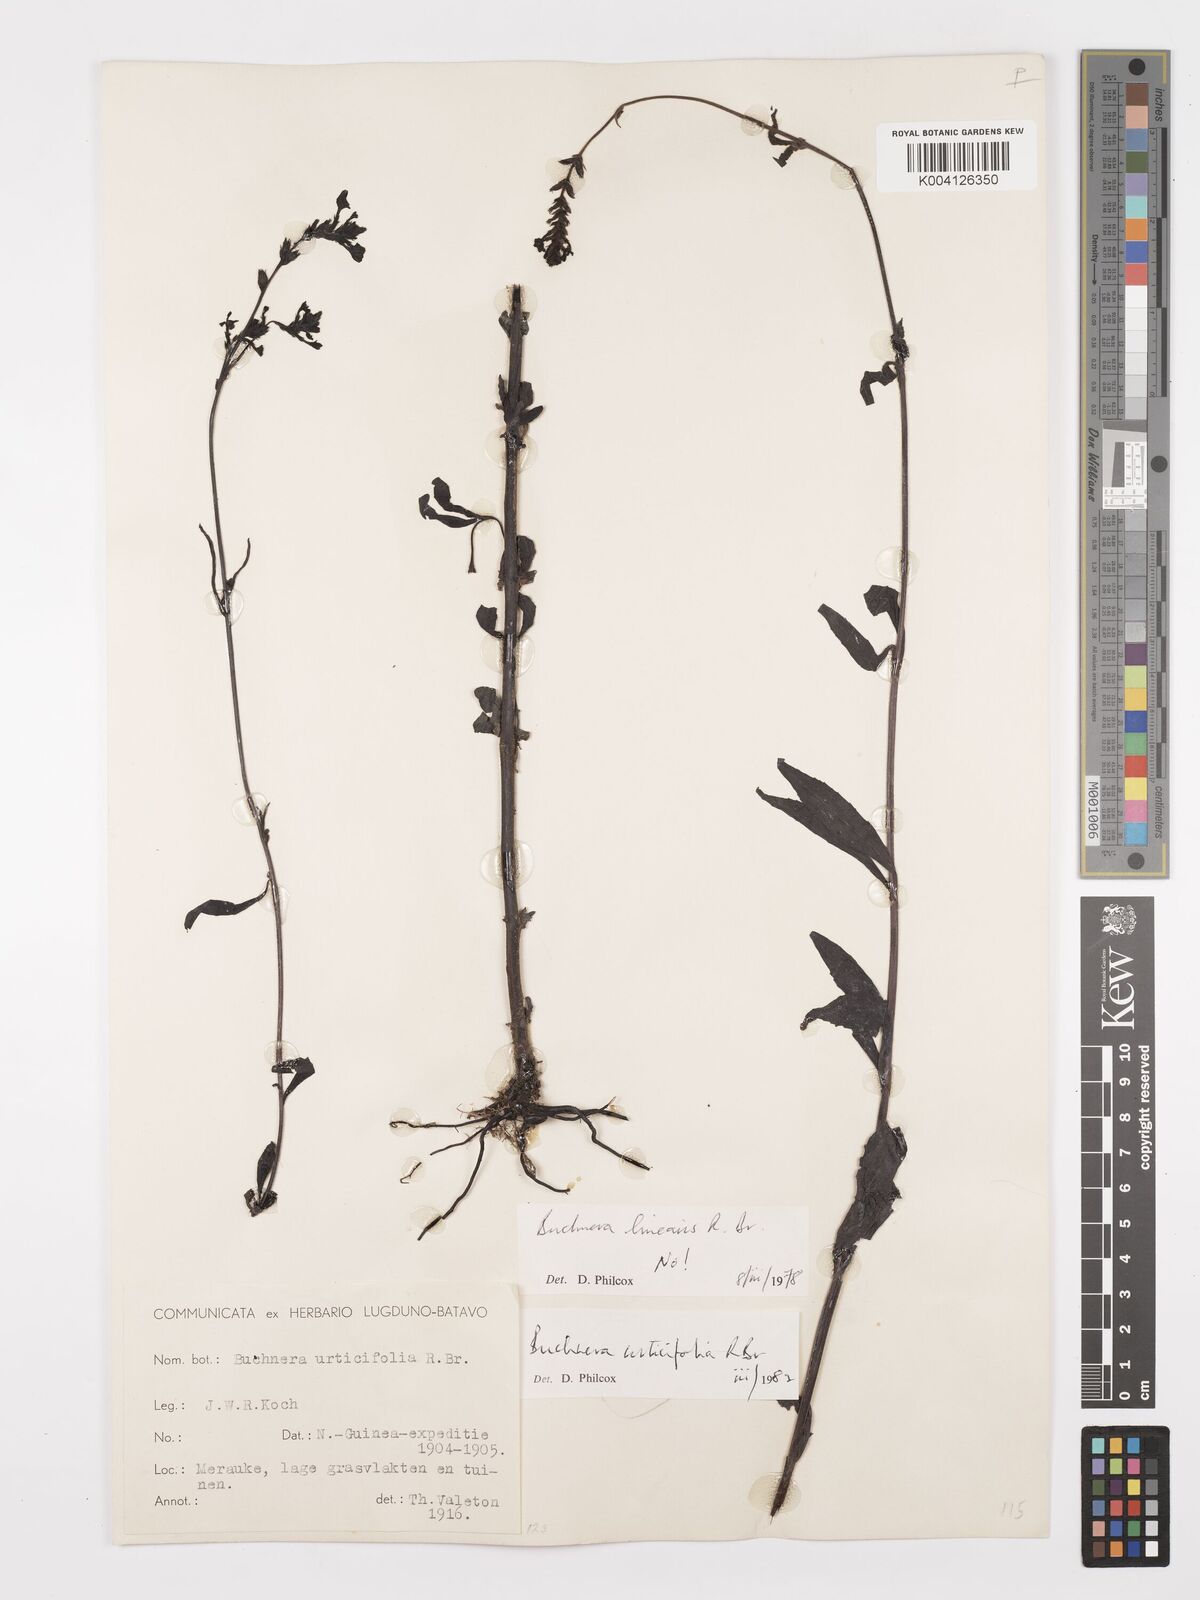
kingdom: Plantae
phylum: Tracheophyta
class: Magnoliopsida
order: Lamiales
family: Orobanchaceae
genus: Buchnera
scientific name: Buchnera urticifolia
